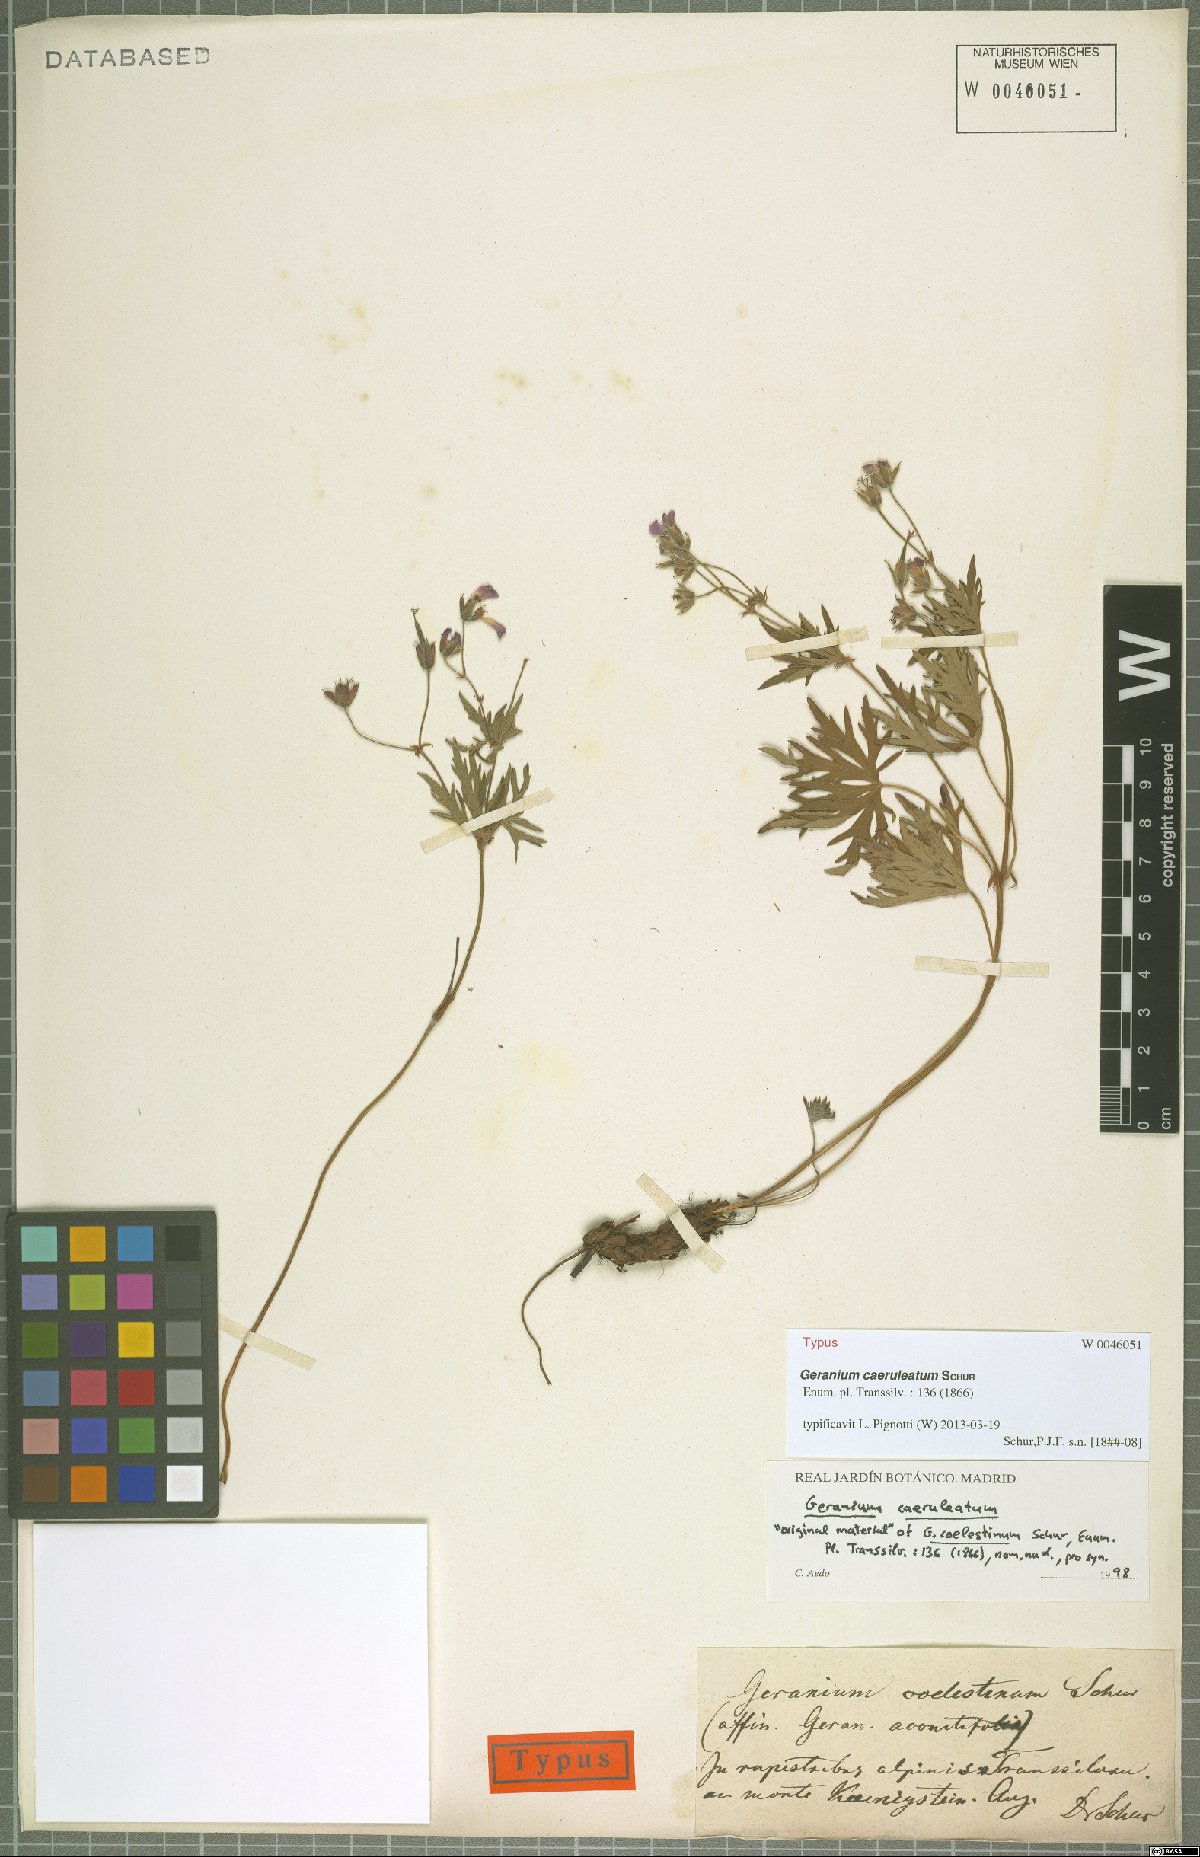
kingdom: Plantae
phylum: Tracheophyta
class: Magnoliopsida
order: Geraniales
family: Geraniaceae
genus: Geranium
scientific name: Geranium caeruleatum
